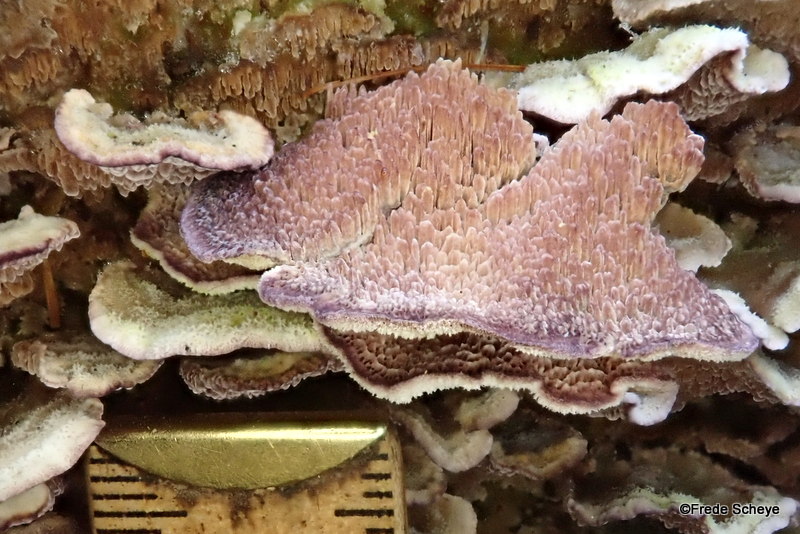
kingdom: Fungi
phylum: Basidiomycota
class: Agaricomycetes
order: Hymenochaetales
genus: Trichaptum
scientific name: Trichaptum fuscoviolaceum
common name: tandet violporesvamp
